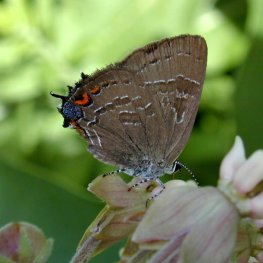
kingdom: Animalia
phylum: Arthropoda
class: Insecta
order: Lepidoptera
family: Lycaenidae
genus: Strymon
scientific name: Strymon caryaevorus
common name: Hickory Hairstreak
